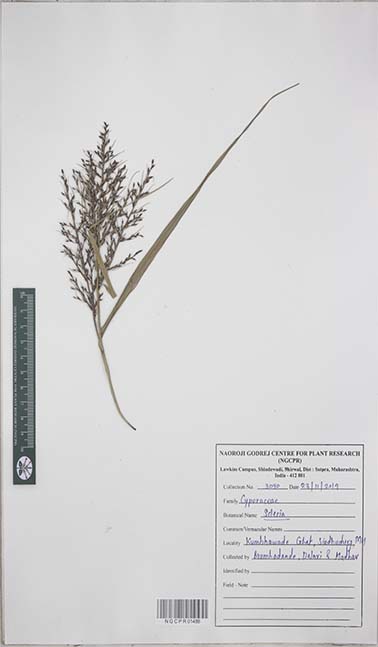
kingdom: Plantae
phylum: Tracheophyta
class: Liliopsida
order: Poales
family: Cyperaceae
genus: Scleria
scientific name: Scleria
